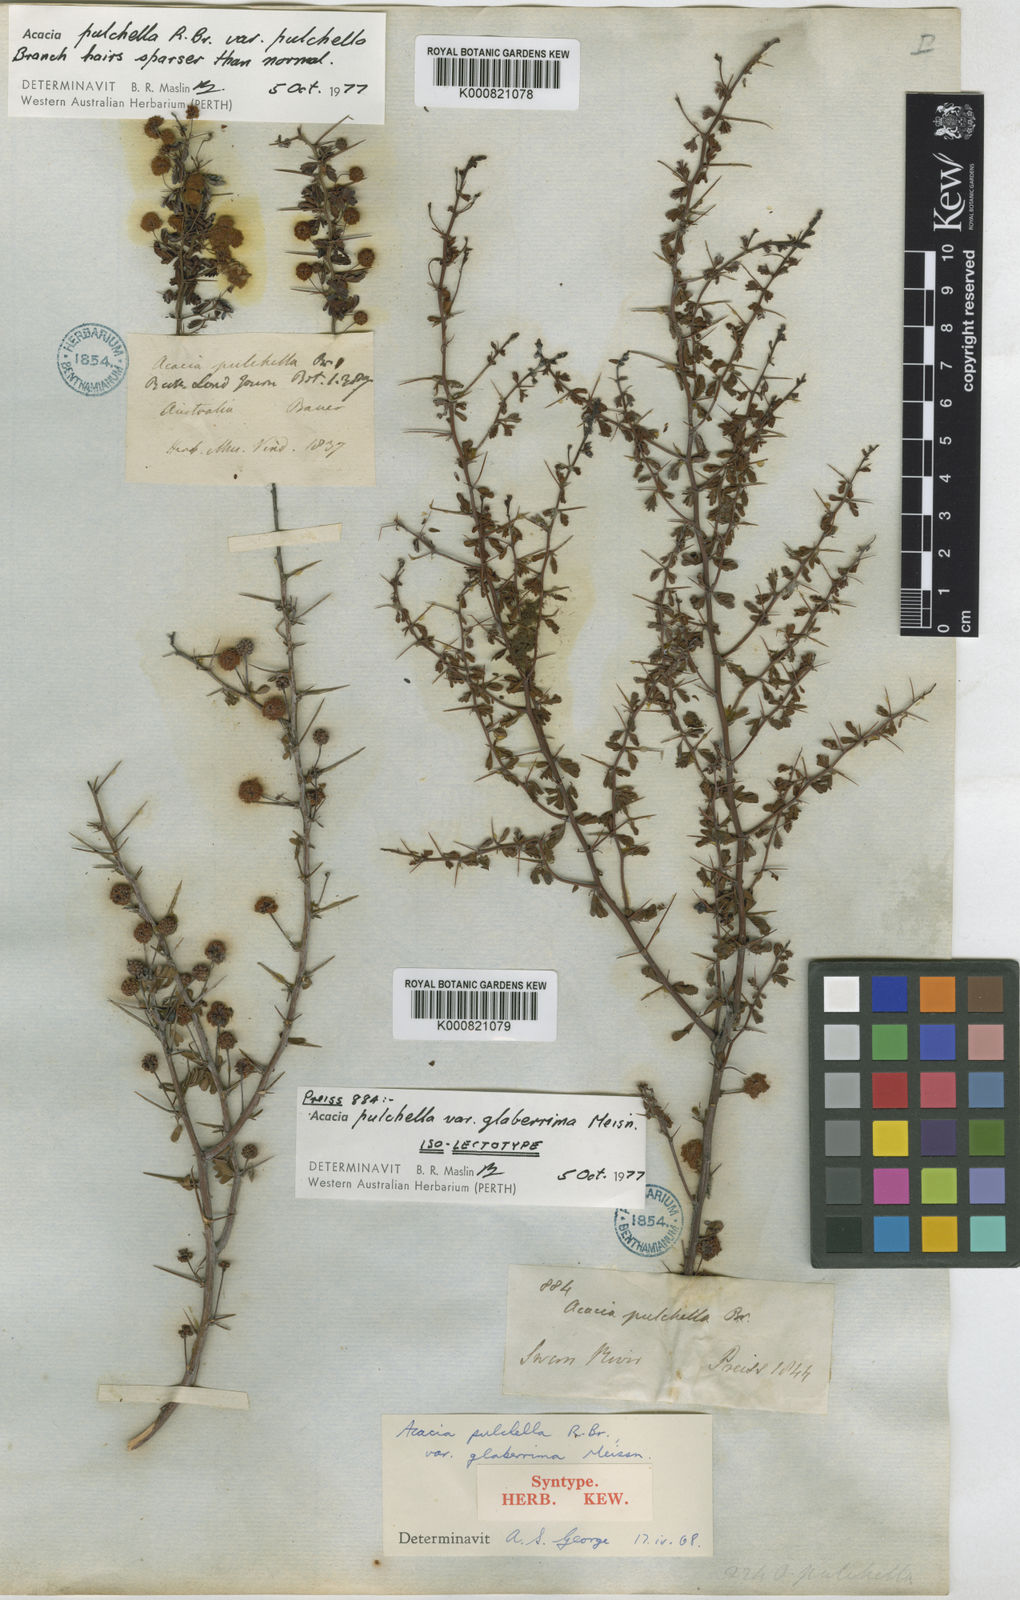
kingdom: Plantae
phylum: Tracheophyta
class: Magnoliopsida
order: Fabales
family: Fabaceae
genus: Acacia
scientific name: Acacia pulchella
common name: Prickly moses
